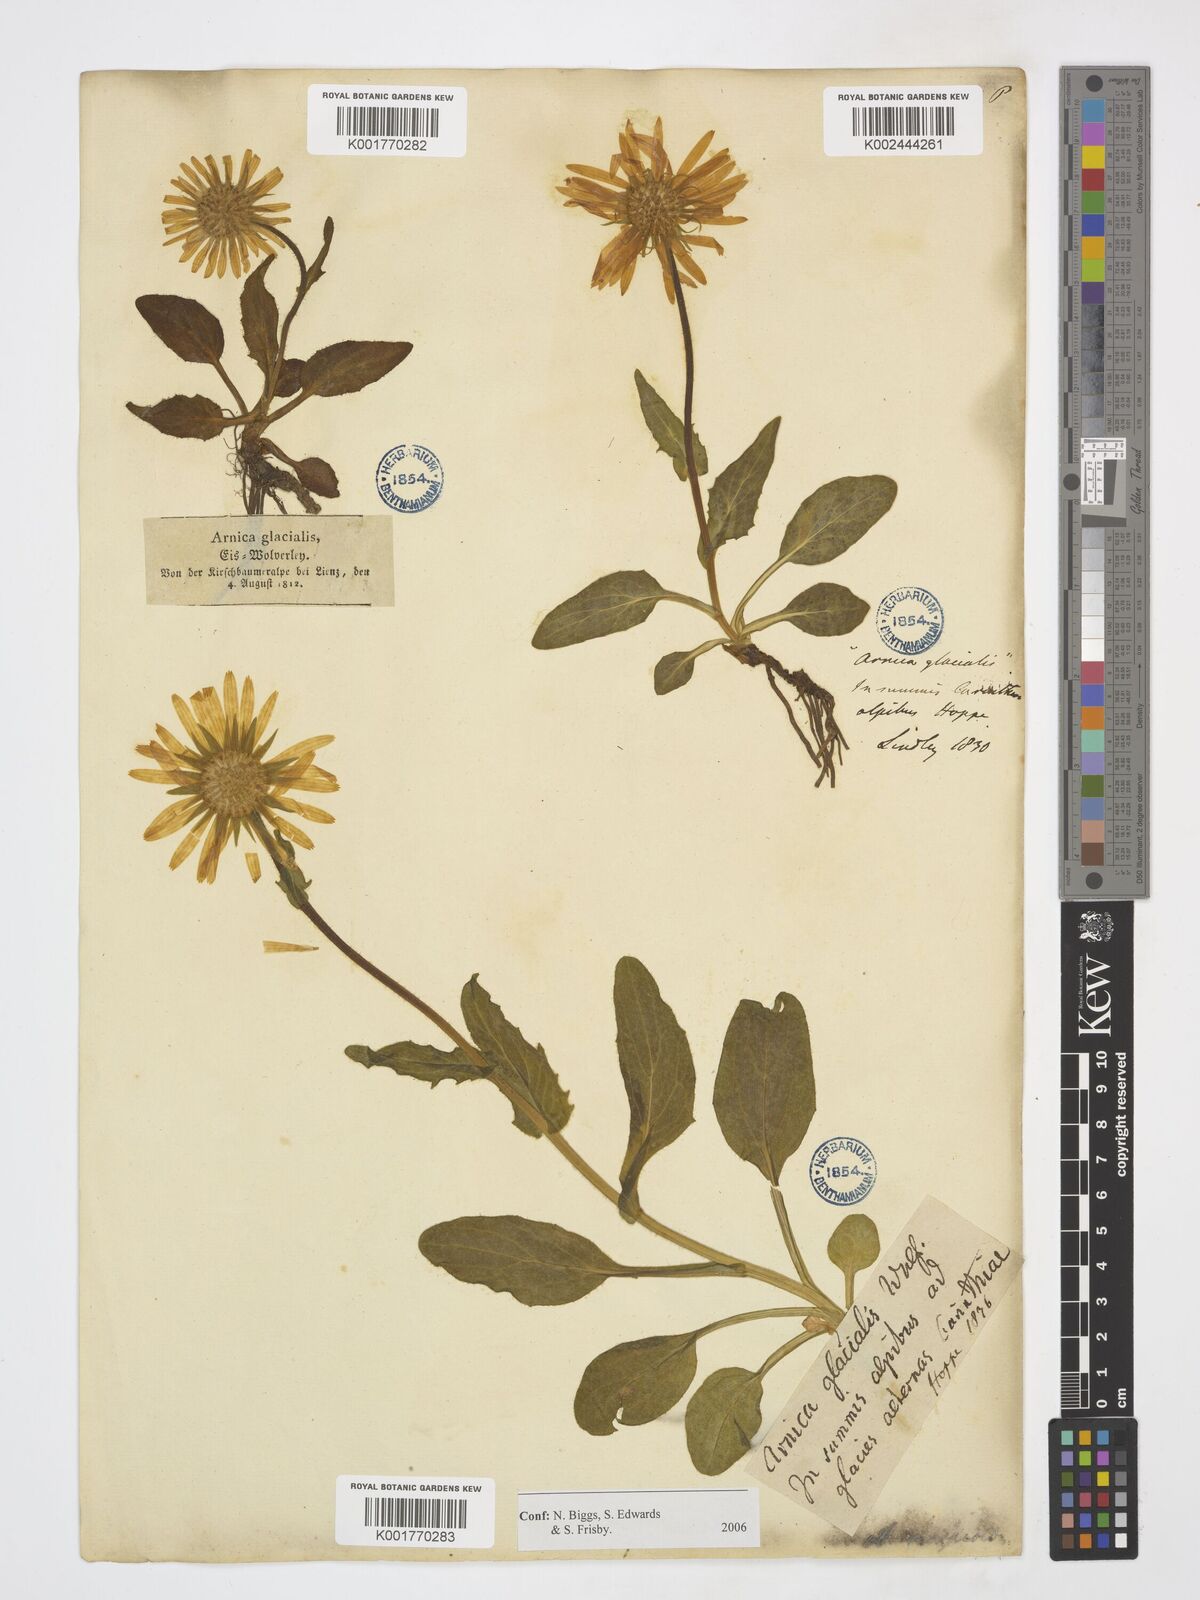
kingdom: Plantae
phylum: Tracheophyta
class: Magnoliopsida
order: Asterales
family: Asteraceae
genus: Doronicum
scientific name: Doronicum glaciale
